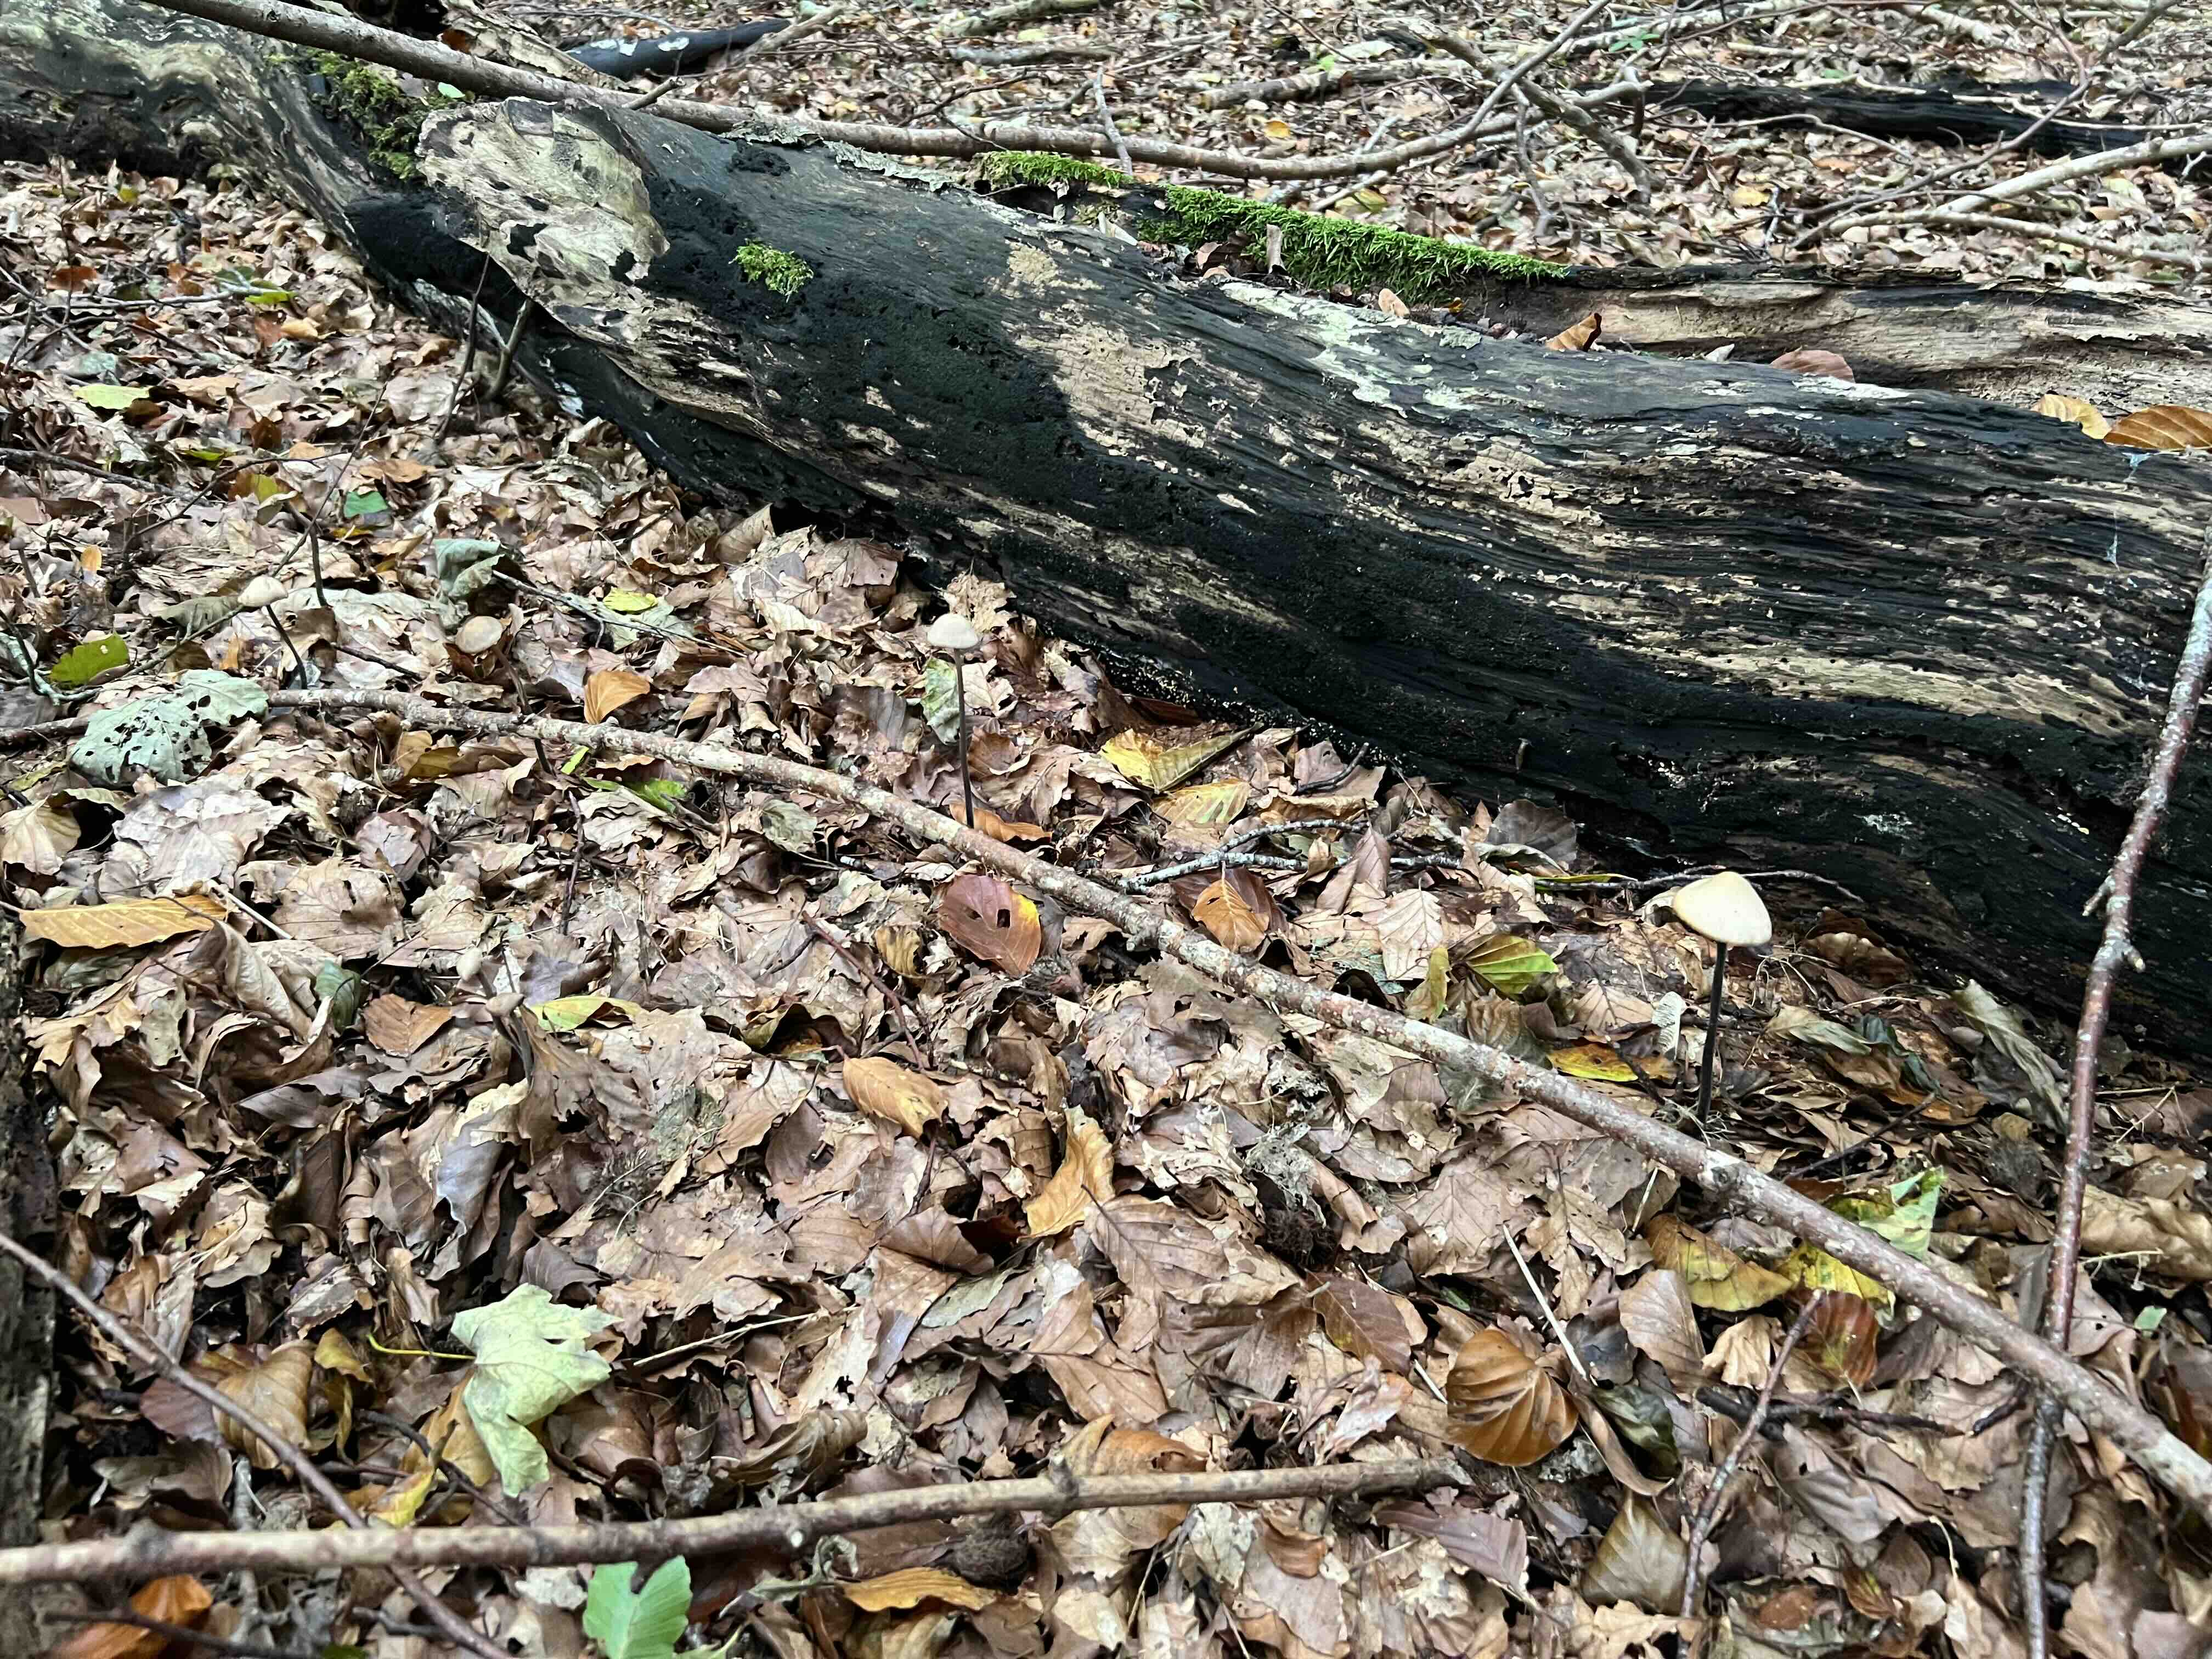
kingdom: Fungi
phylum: Basidiomycota
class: Agaricomycetes
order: Agaricales
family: Omphalotaceae
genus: Mycetinis
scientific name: Mycetinis alliaceus
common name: stor løghat
